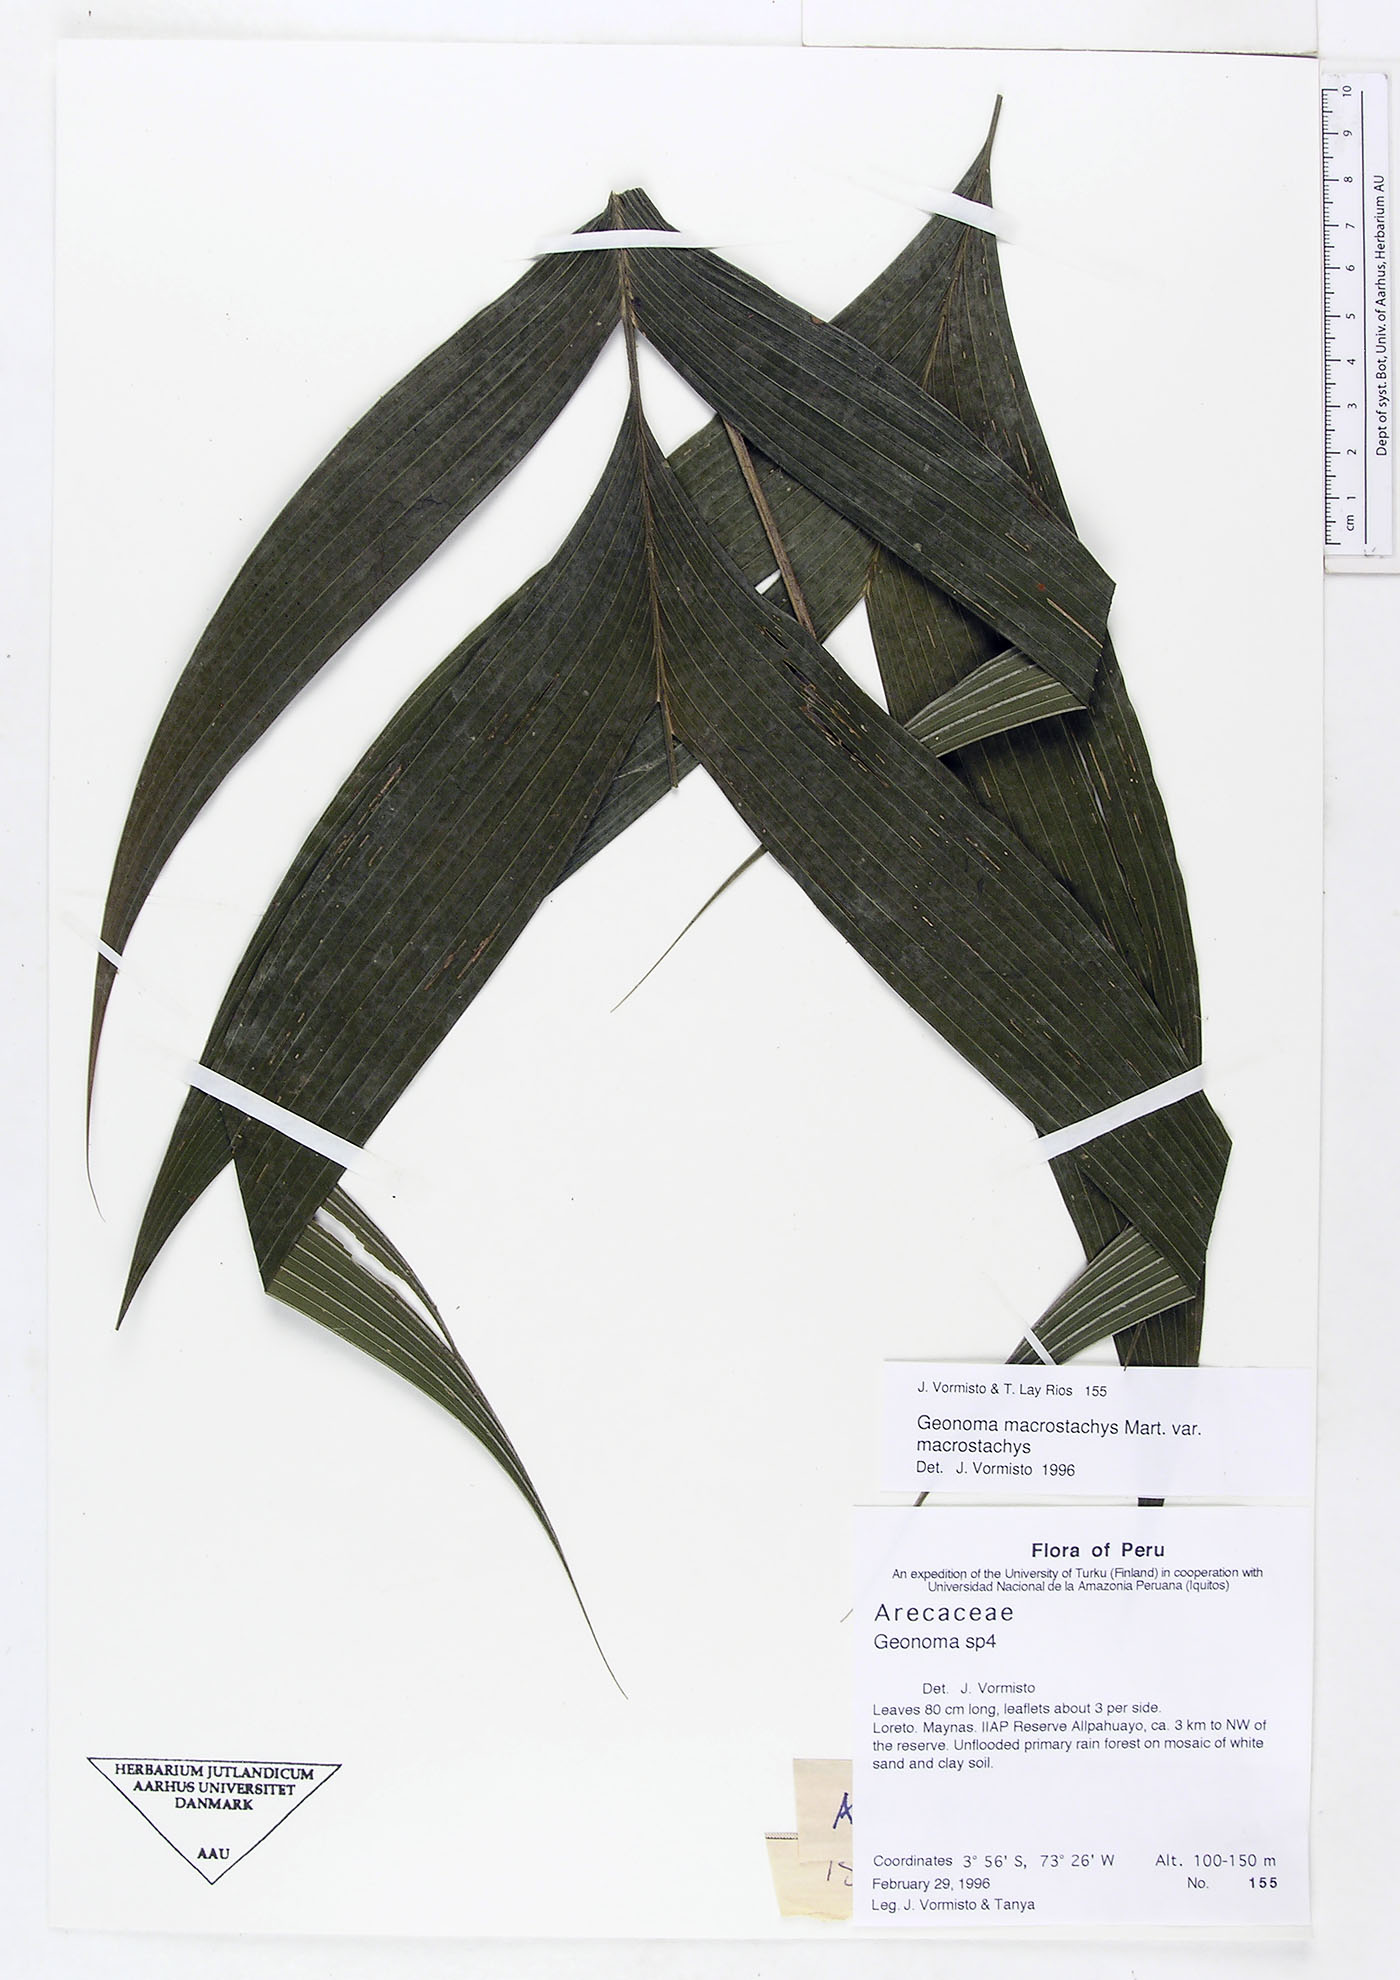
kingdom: Plantae
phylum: Tracheophyta
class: Liliopsida
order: Arecales
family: Arecaceae
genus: Geonoma
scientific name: Geonoma macrostachys
